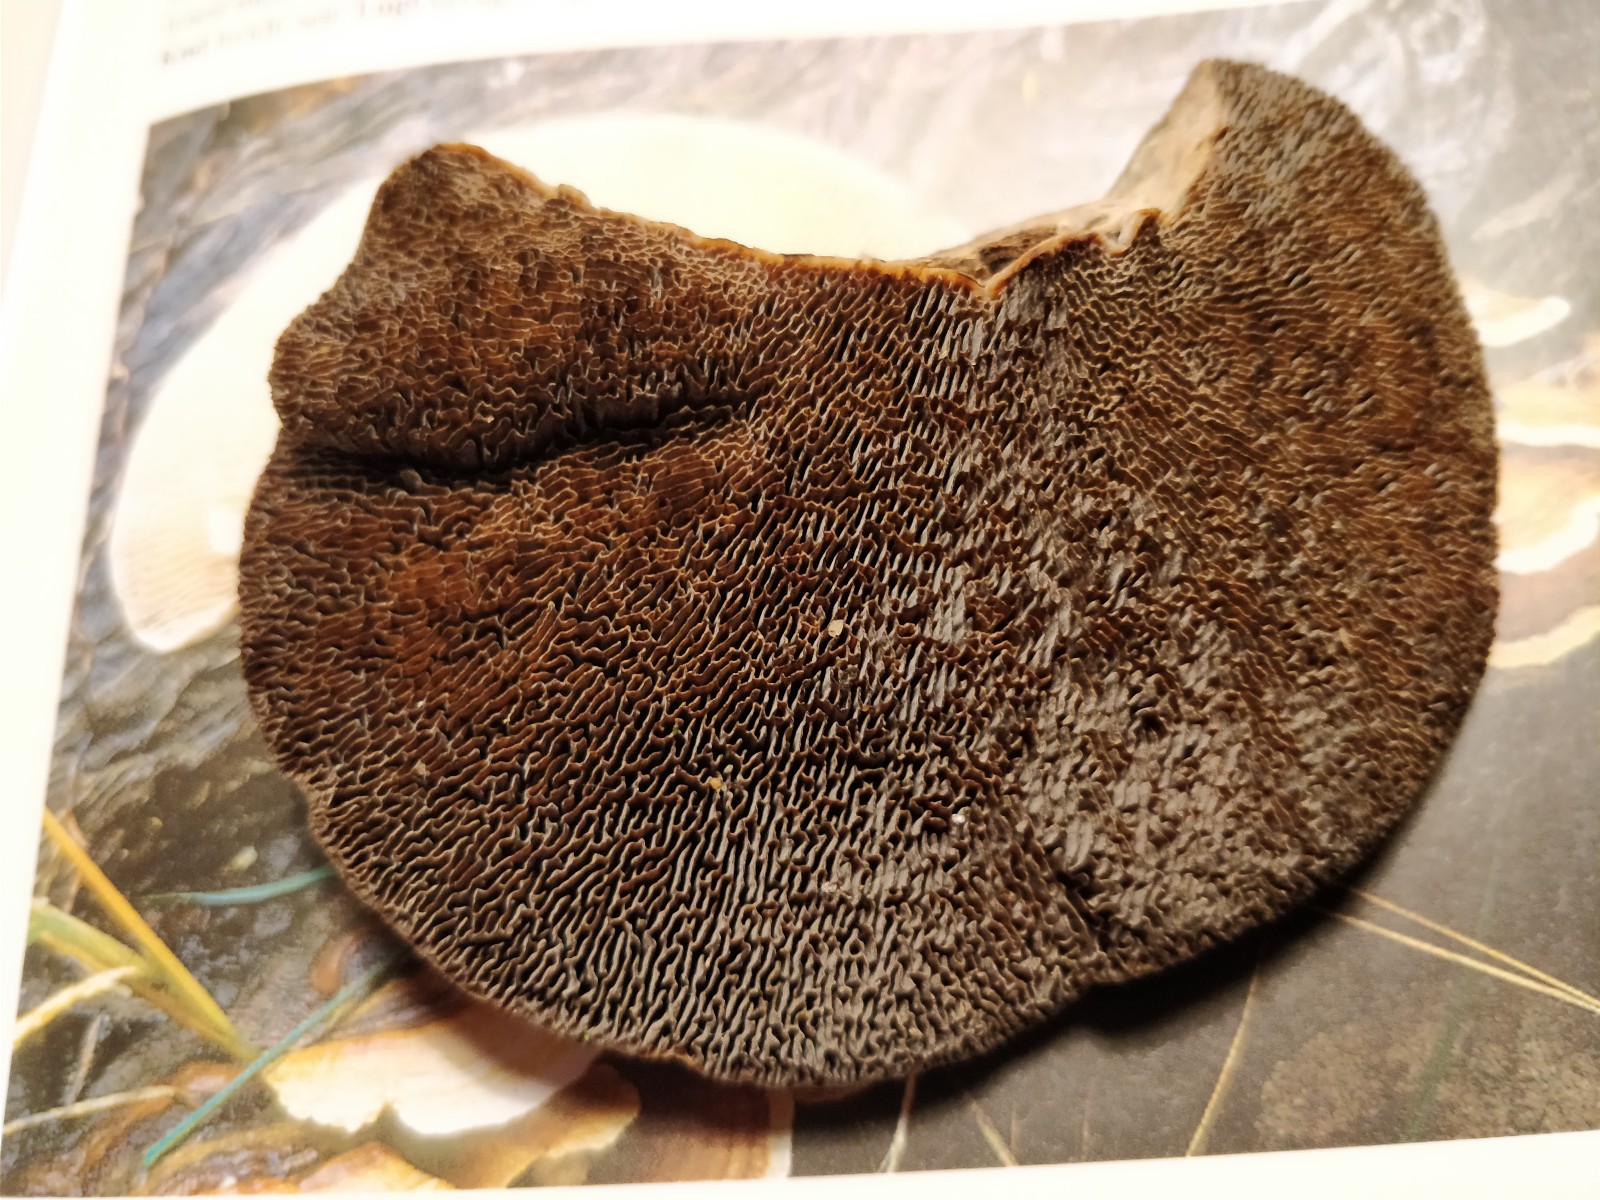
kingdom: Fungi
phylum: Basidiomycota
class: Agaricomycetes
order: Polyporales
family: Polyporaceae
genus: Daedaleopsis
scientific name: Daedaleopsis confragosa
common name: rødmende læderporesvamp
